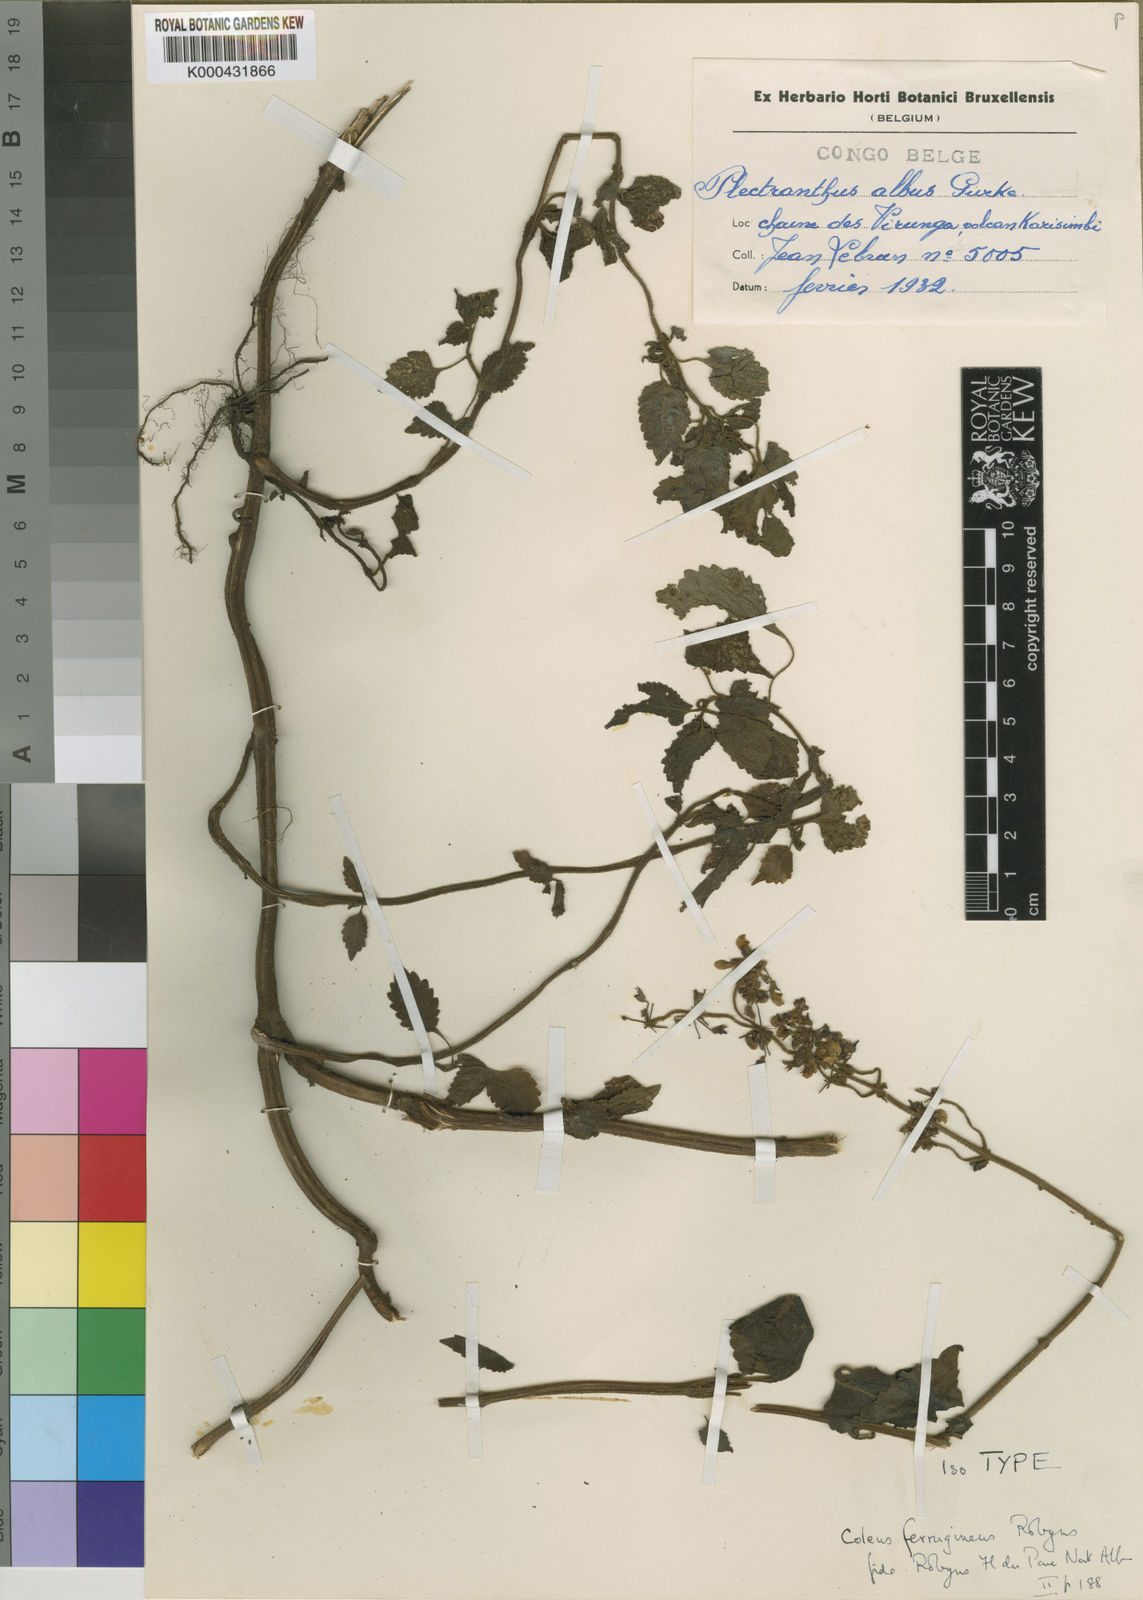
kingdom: Plantae
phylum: Tracheophyta
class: Magnoliopsida
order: Lamiales
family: Lamiaceae
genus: Plectranthus
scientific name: Plectranthus
